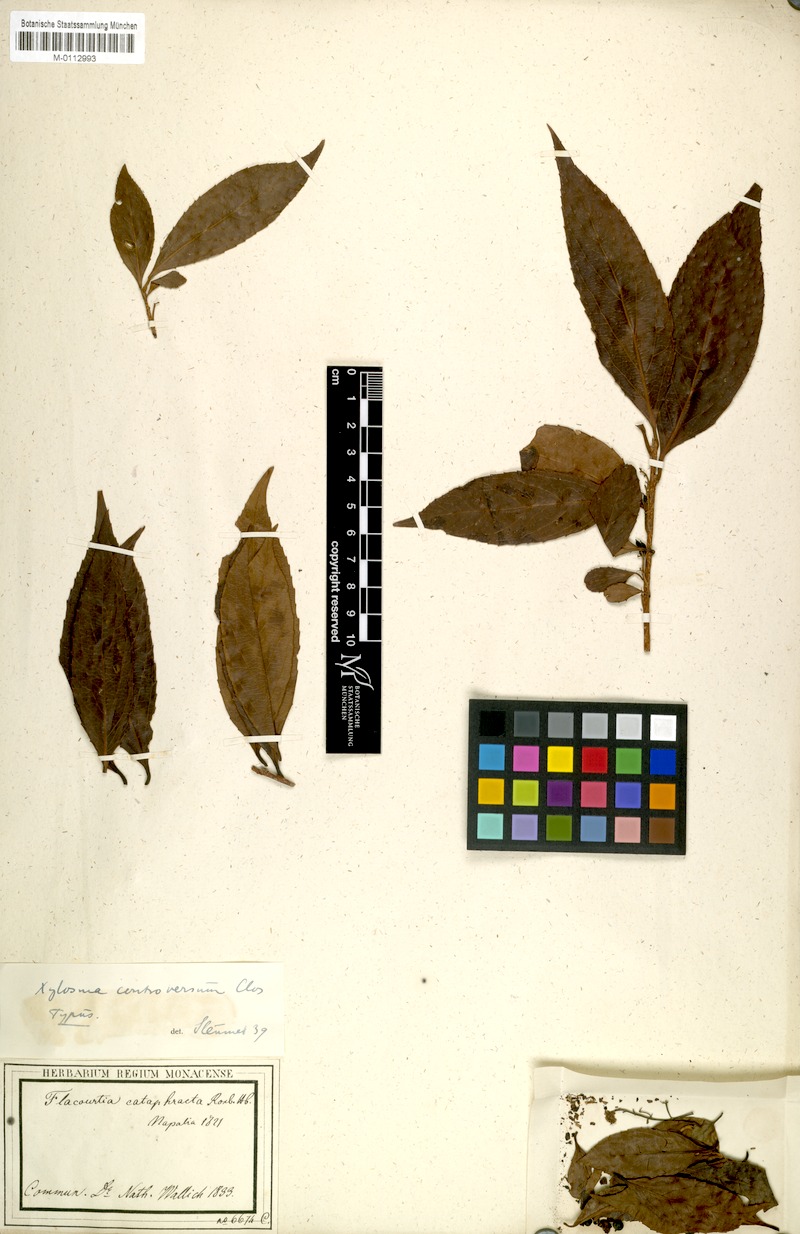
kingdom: Plantae
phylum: Tracheophyta
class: Magnoliopsida
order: Malpighiales
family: Salicaceae
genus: Xylosma
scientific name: Xylosma controversa
